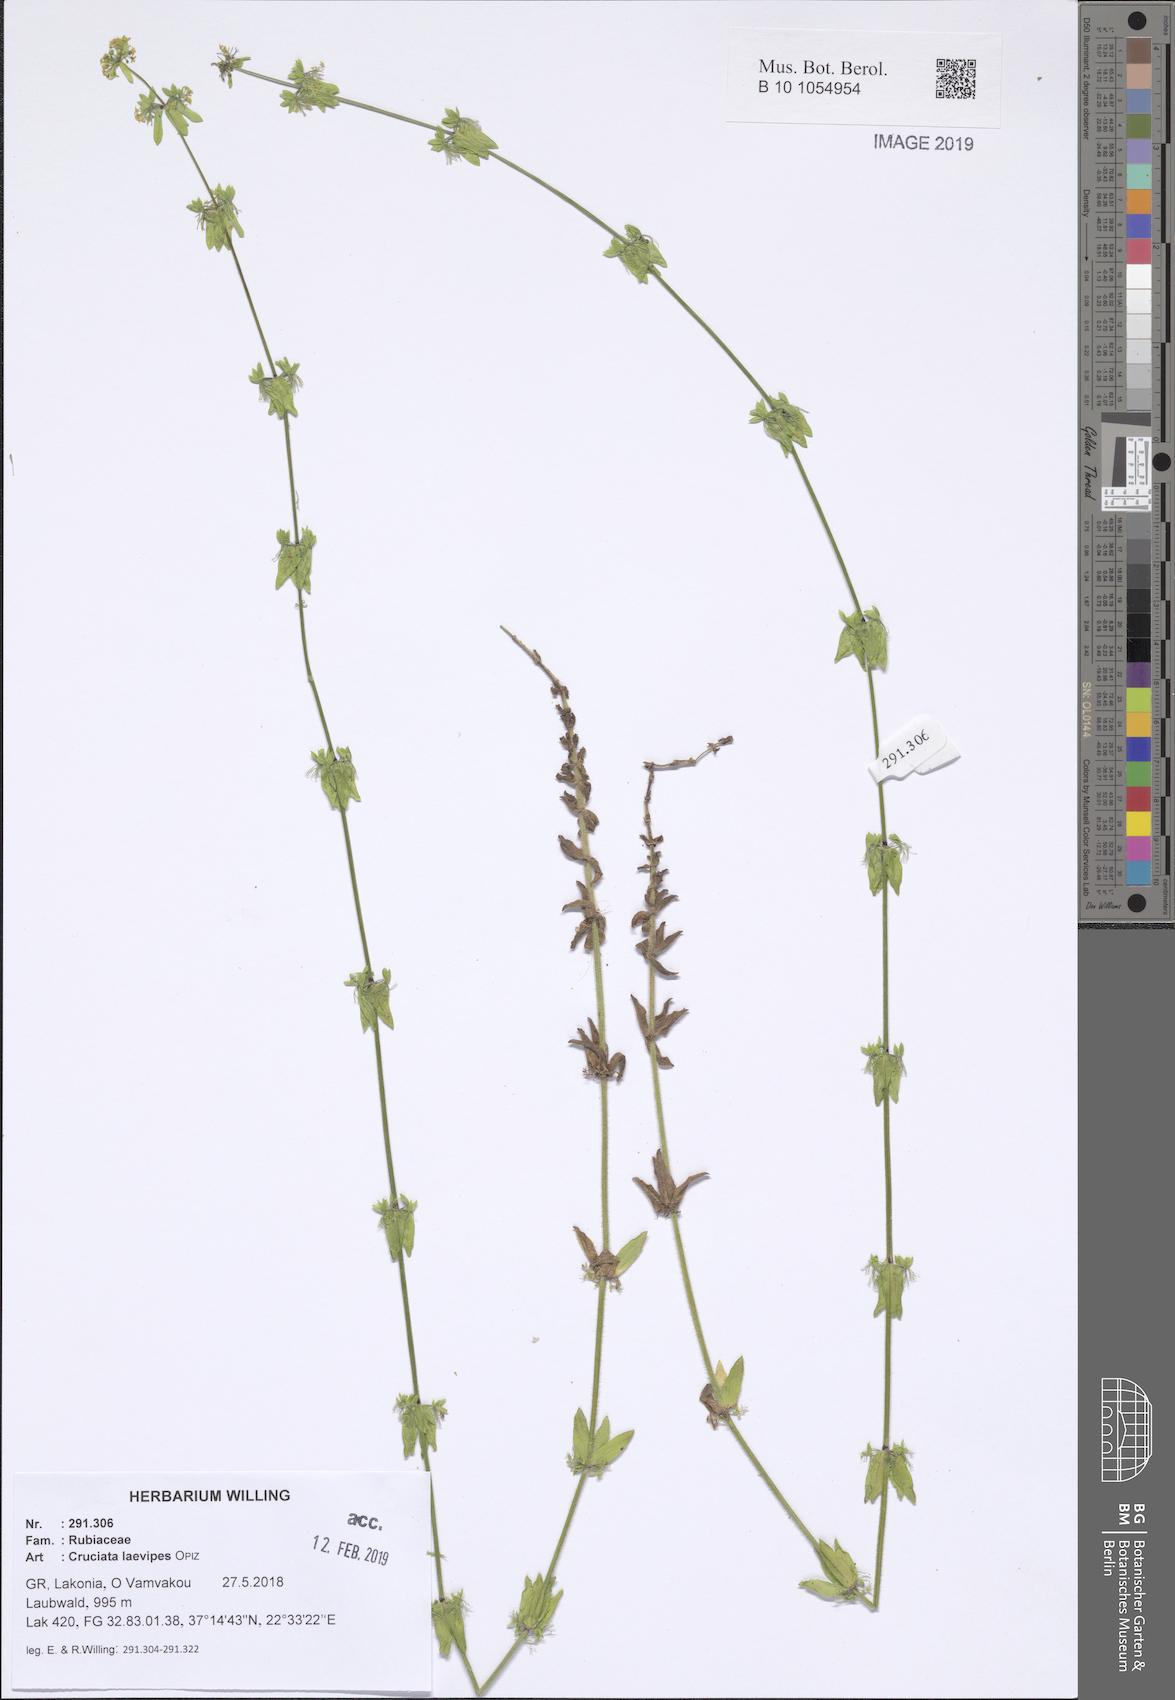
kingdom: Plantae
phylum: Tracheophyta
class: Magnoliopsida
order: Gentianales
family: Rubiaceae
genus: Cruciata
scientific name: Cruciata laevipes
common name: Crosswort
